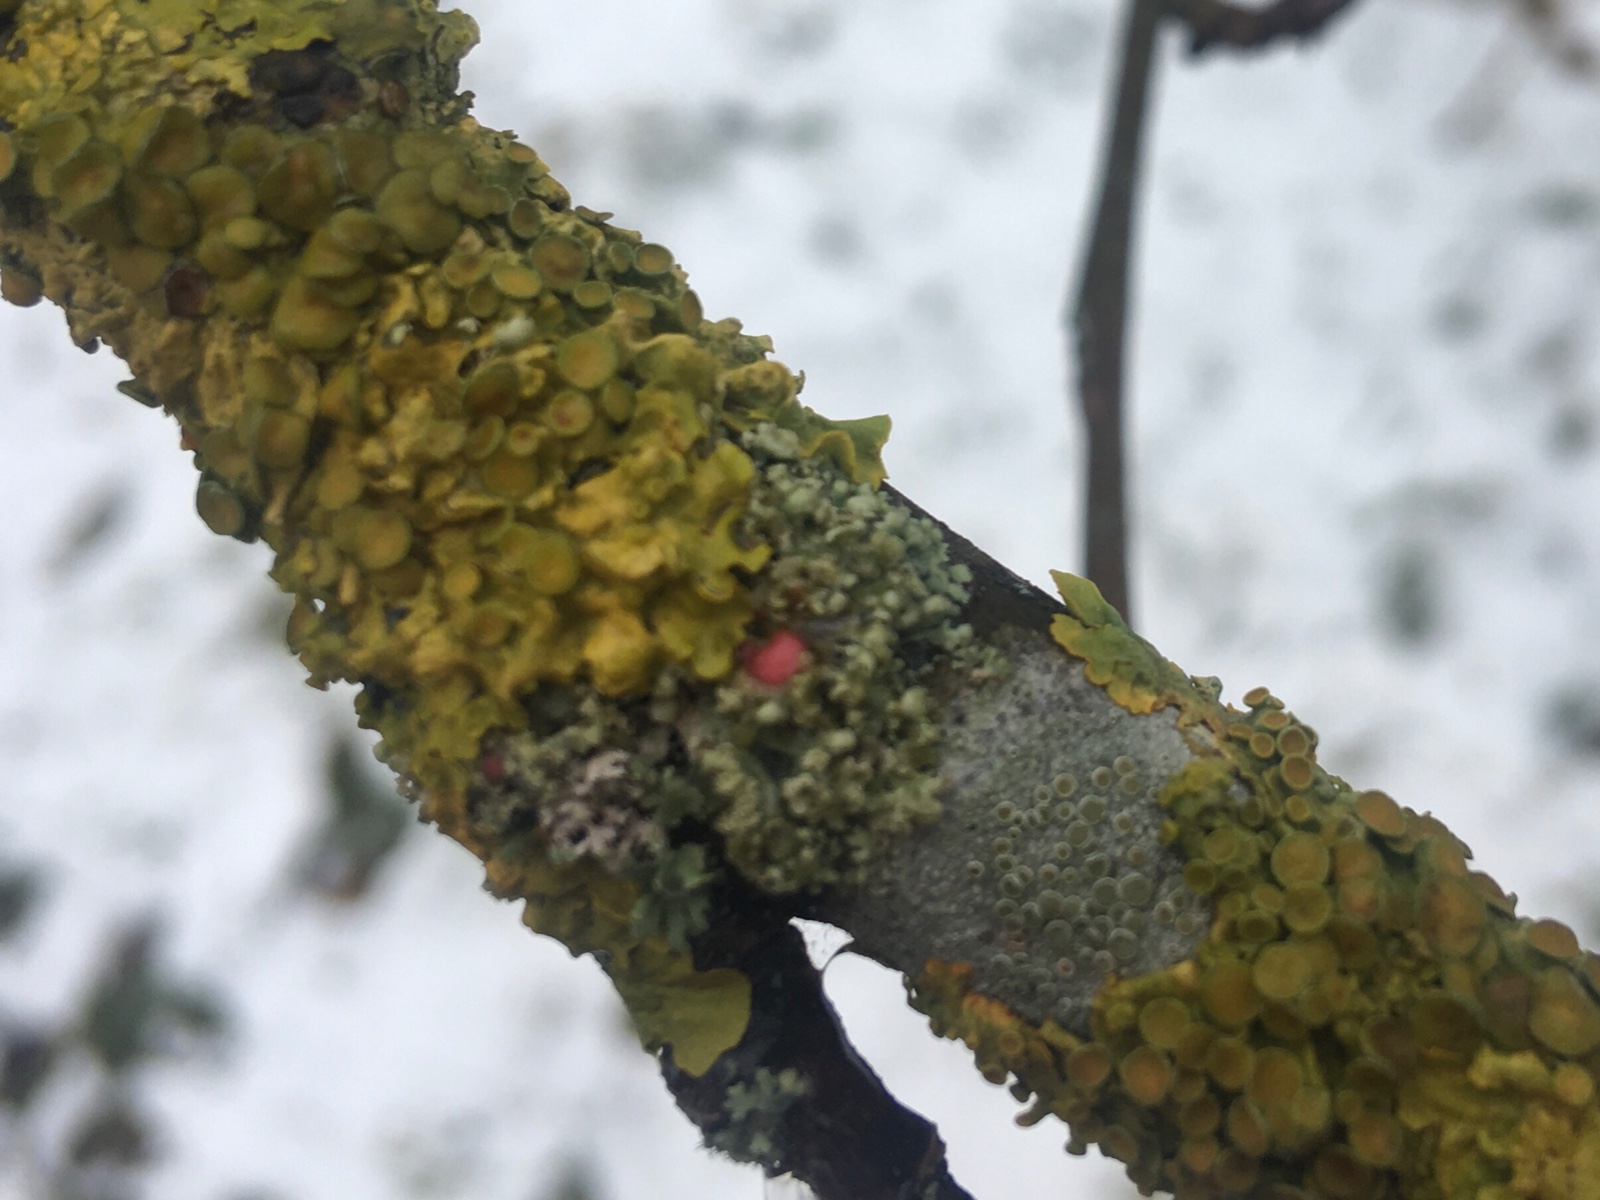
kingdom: Fungi
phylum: Ascomycota
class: Sordariomycetes
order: Hypocreales
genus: Illosporiopsis
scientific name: Illosporiopsis christiansenii
